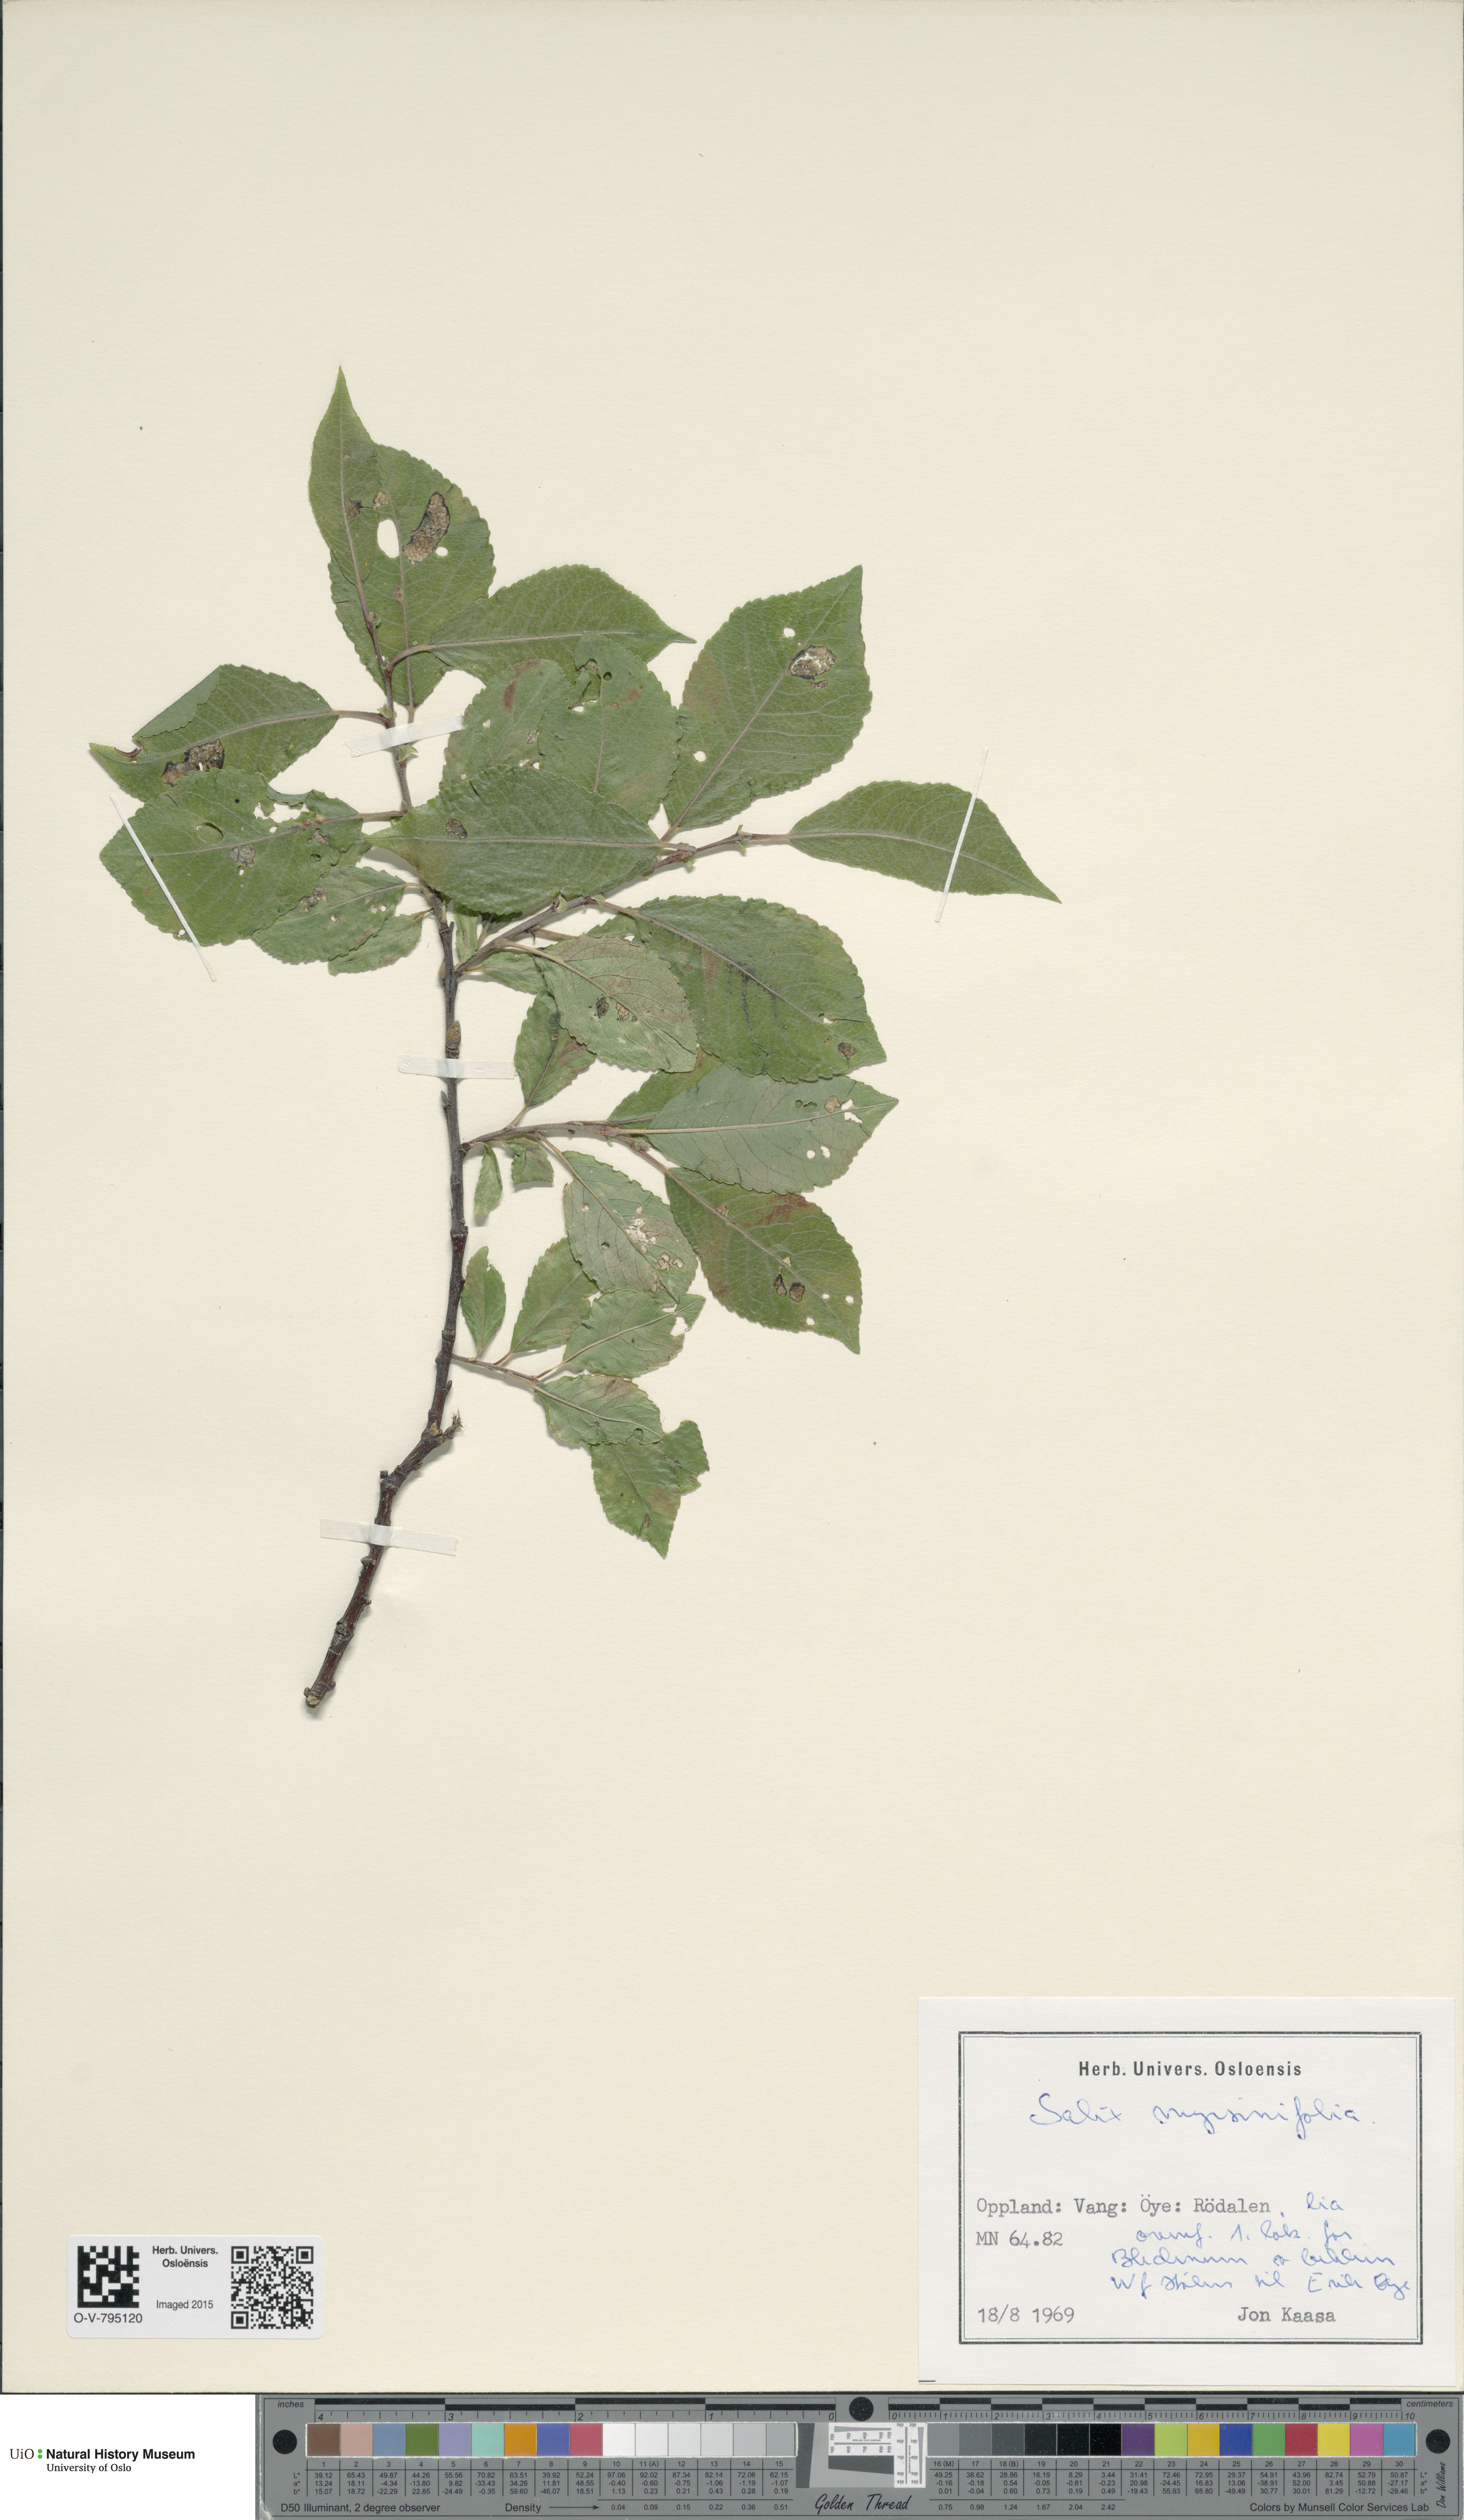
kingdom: Plantae
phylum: Tracheophyta
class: Magnoliopsida
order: Malpighiales
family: Salicaceae
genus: Salix
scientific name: Salix myrsinifolia
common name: Dark-leaved willow
